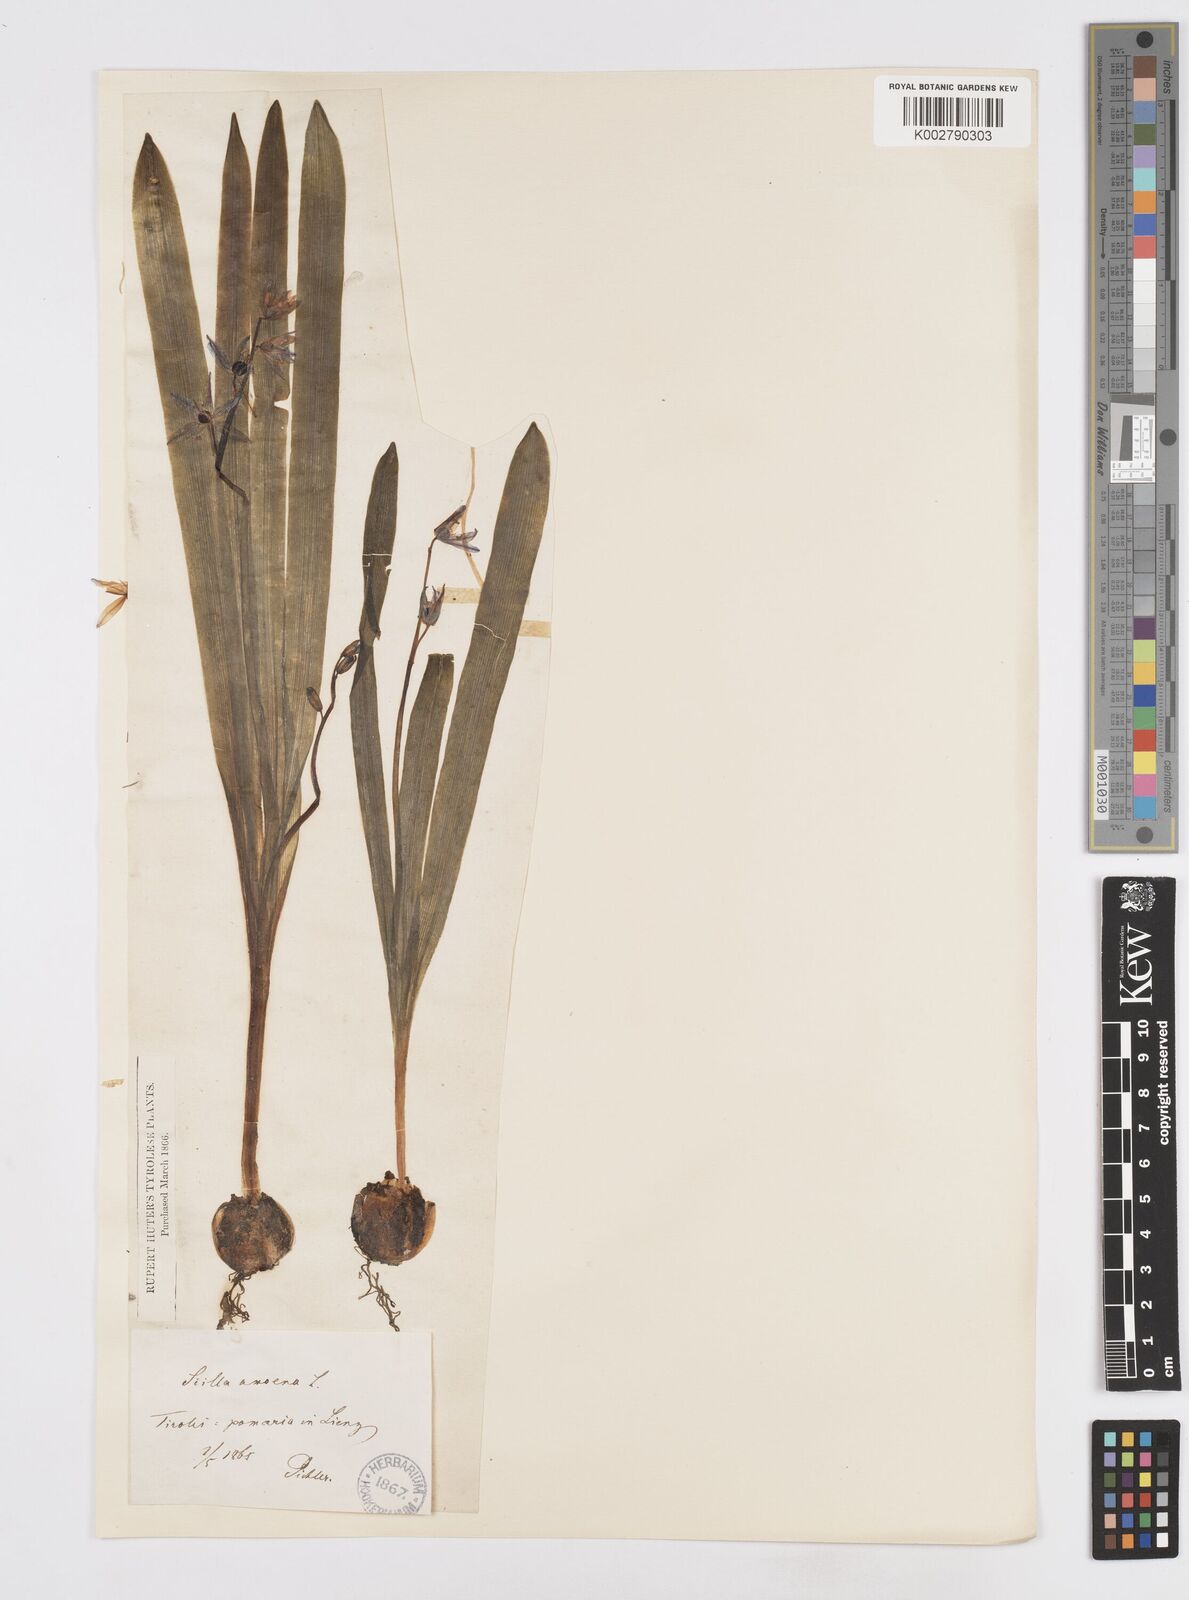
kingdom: Plantae
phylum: Tracheophyta
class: Liliopsida
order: Asparagales
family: Asparagaceae
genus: Scilla
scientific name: Scilla amoena
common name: Star-hyacinth
